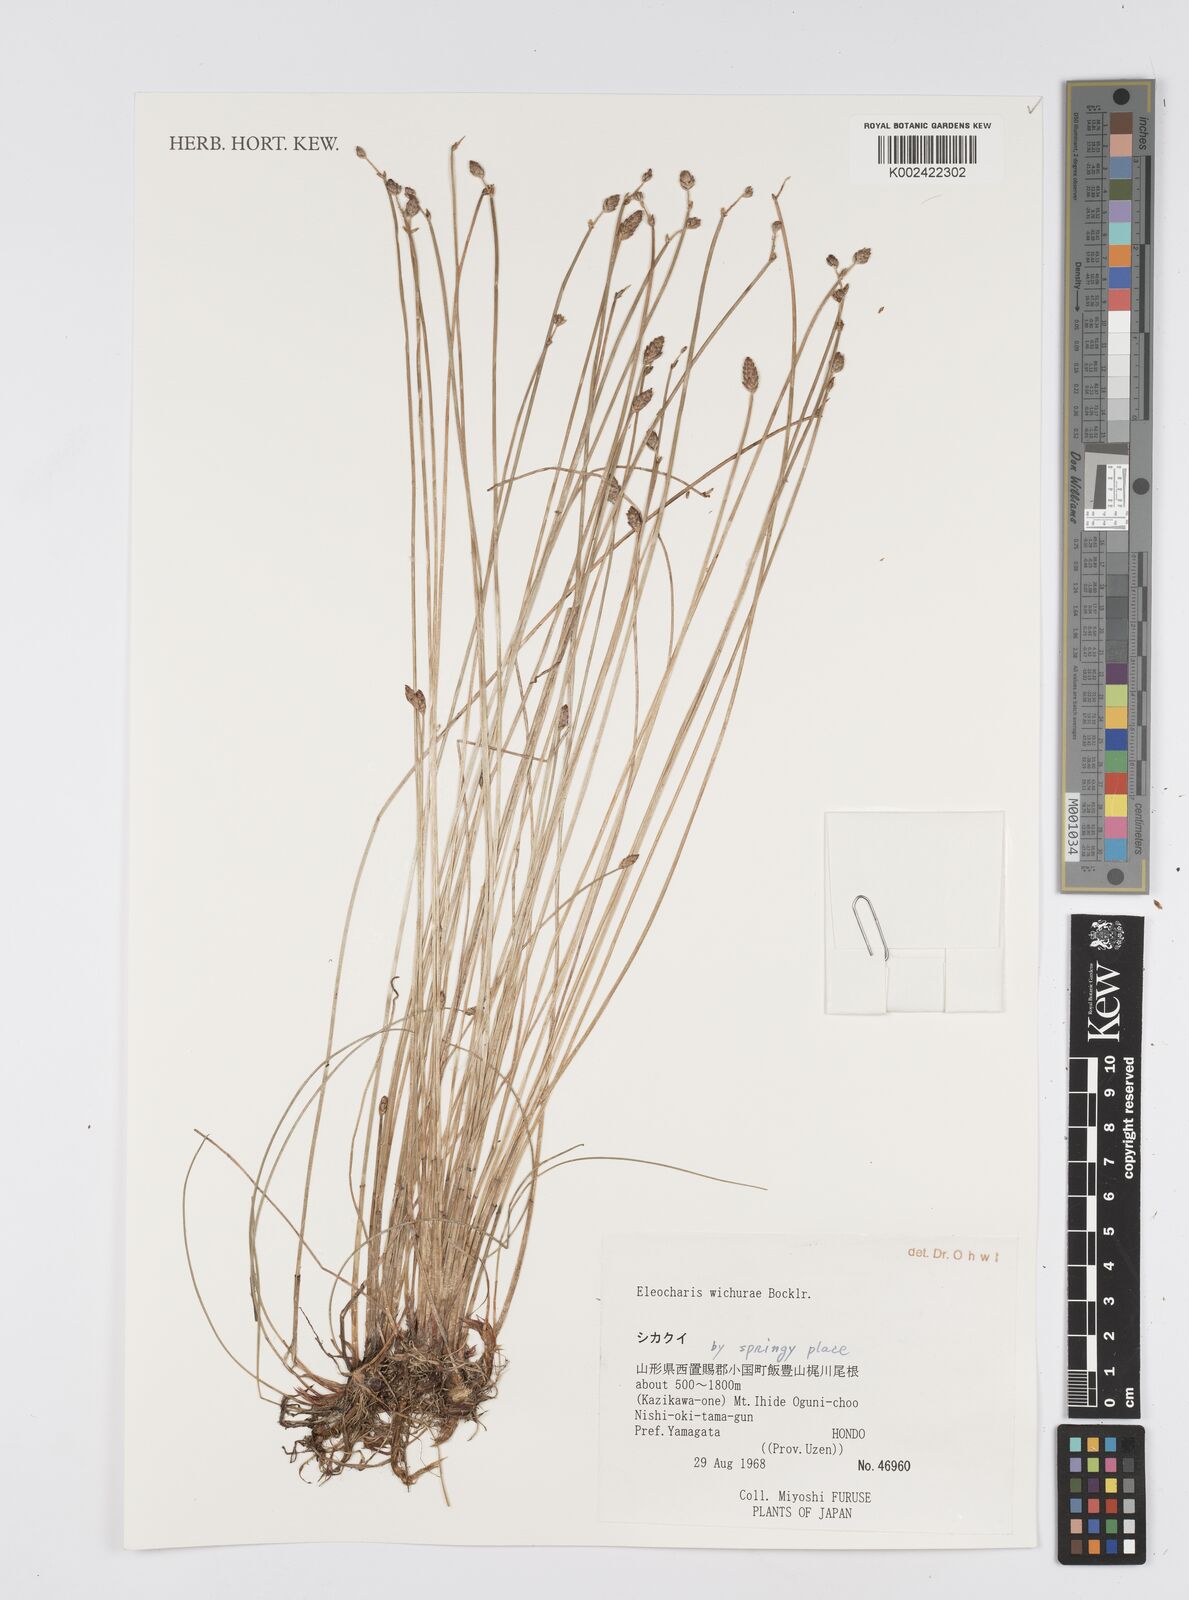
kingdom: Plantae
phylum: Tracheophyta
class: Liliopsida
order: Poales
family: Cyperaceae
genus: Eleocharis
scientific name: Eleocharis wichurae
